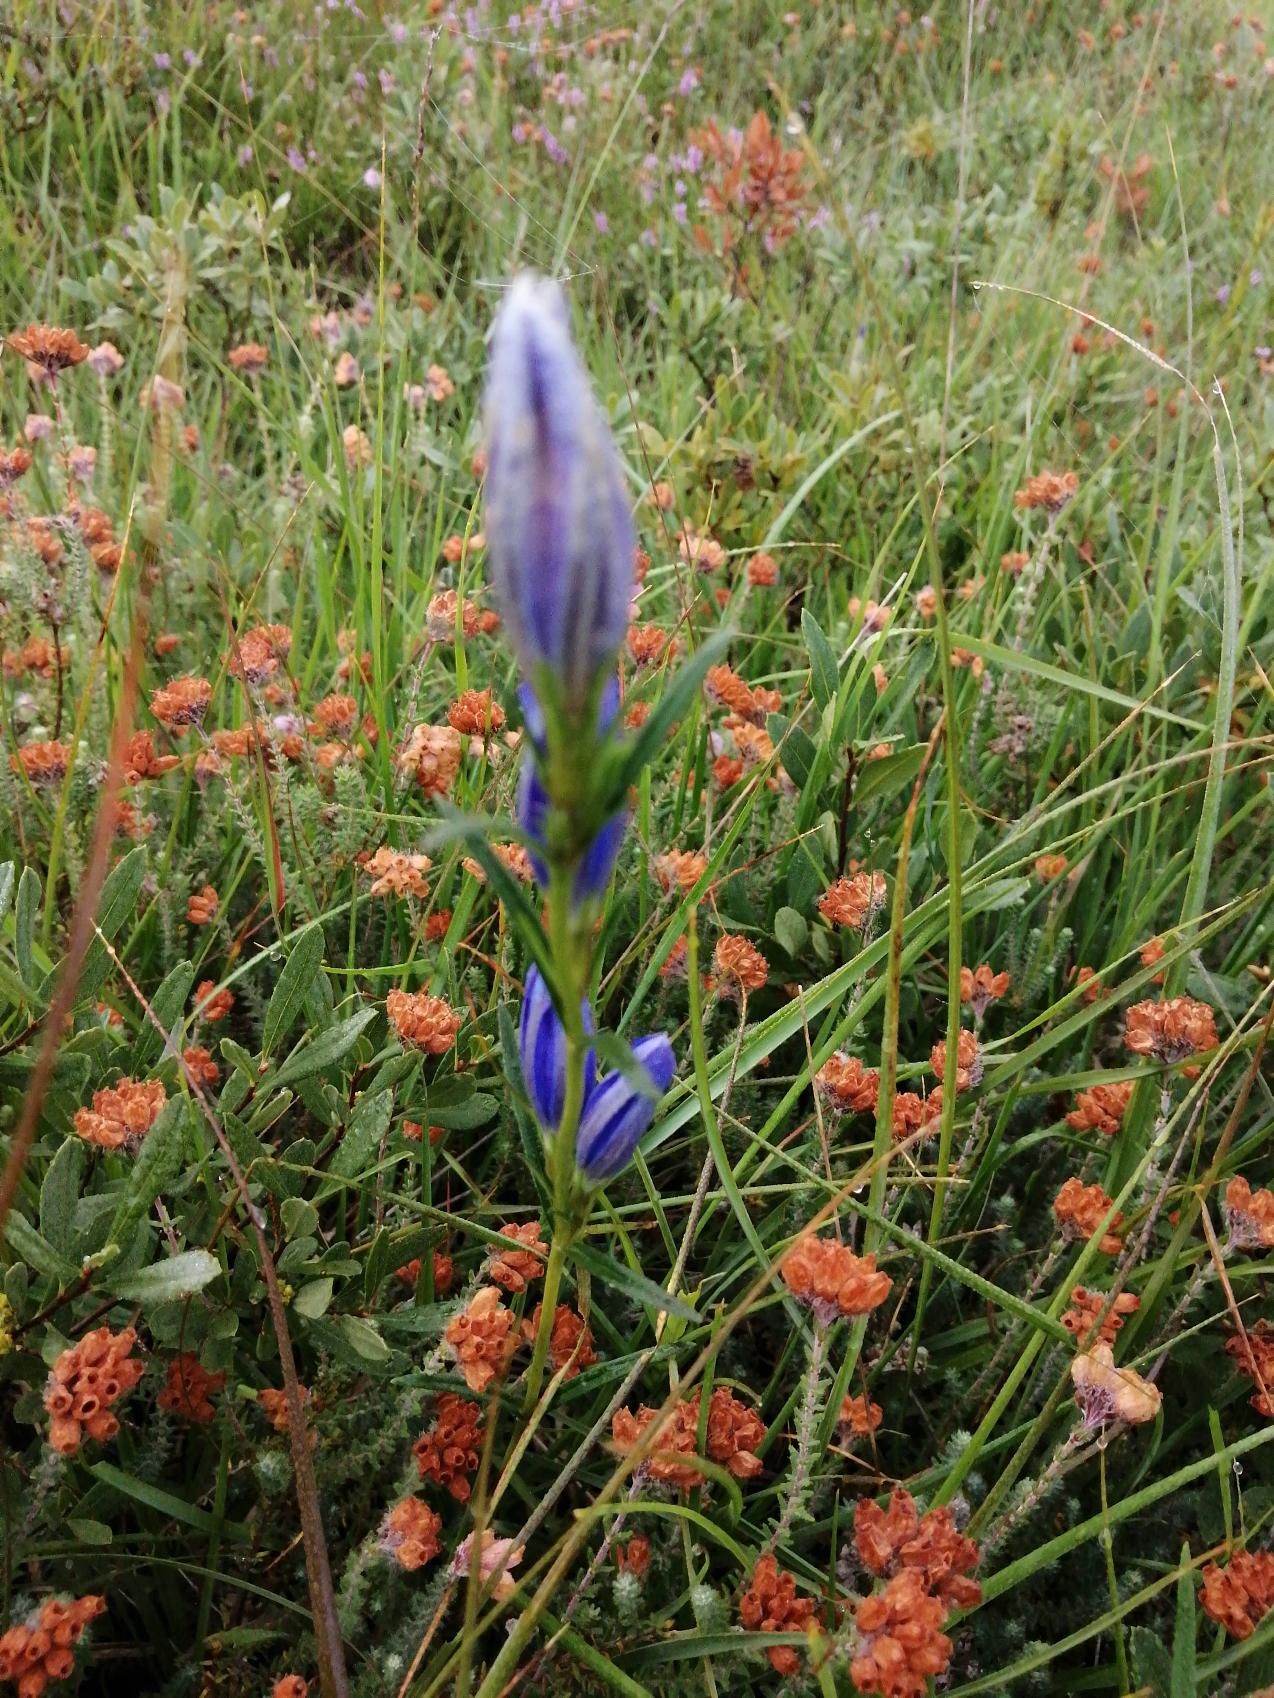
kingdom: Plantae
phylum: Tracheophyta
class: Magnoliopsida
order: Gentianales
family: Gentianaceae
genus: Gentiana
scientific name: Gentiana pneumonanthe
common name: Klokke-ensian
